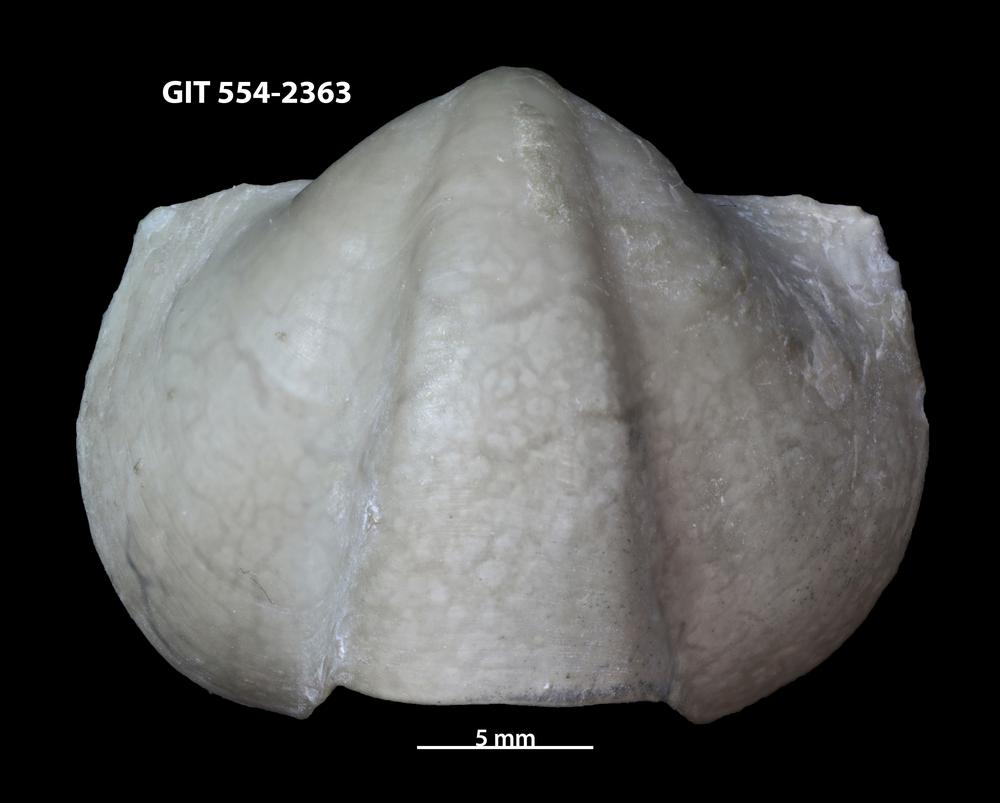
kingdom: Animalia
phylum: Brachiopoda
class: Rhynchonellata
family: Triplesiidae
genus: Triplesia
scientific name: Triplesia
